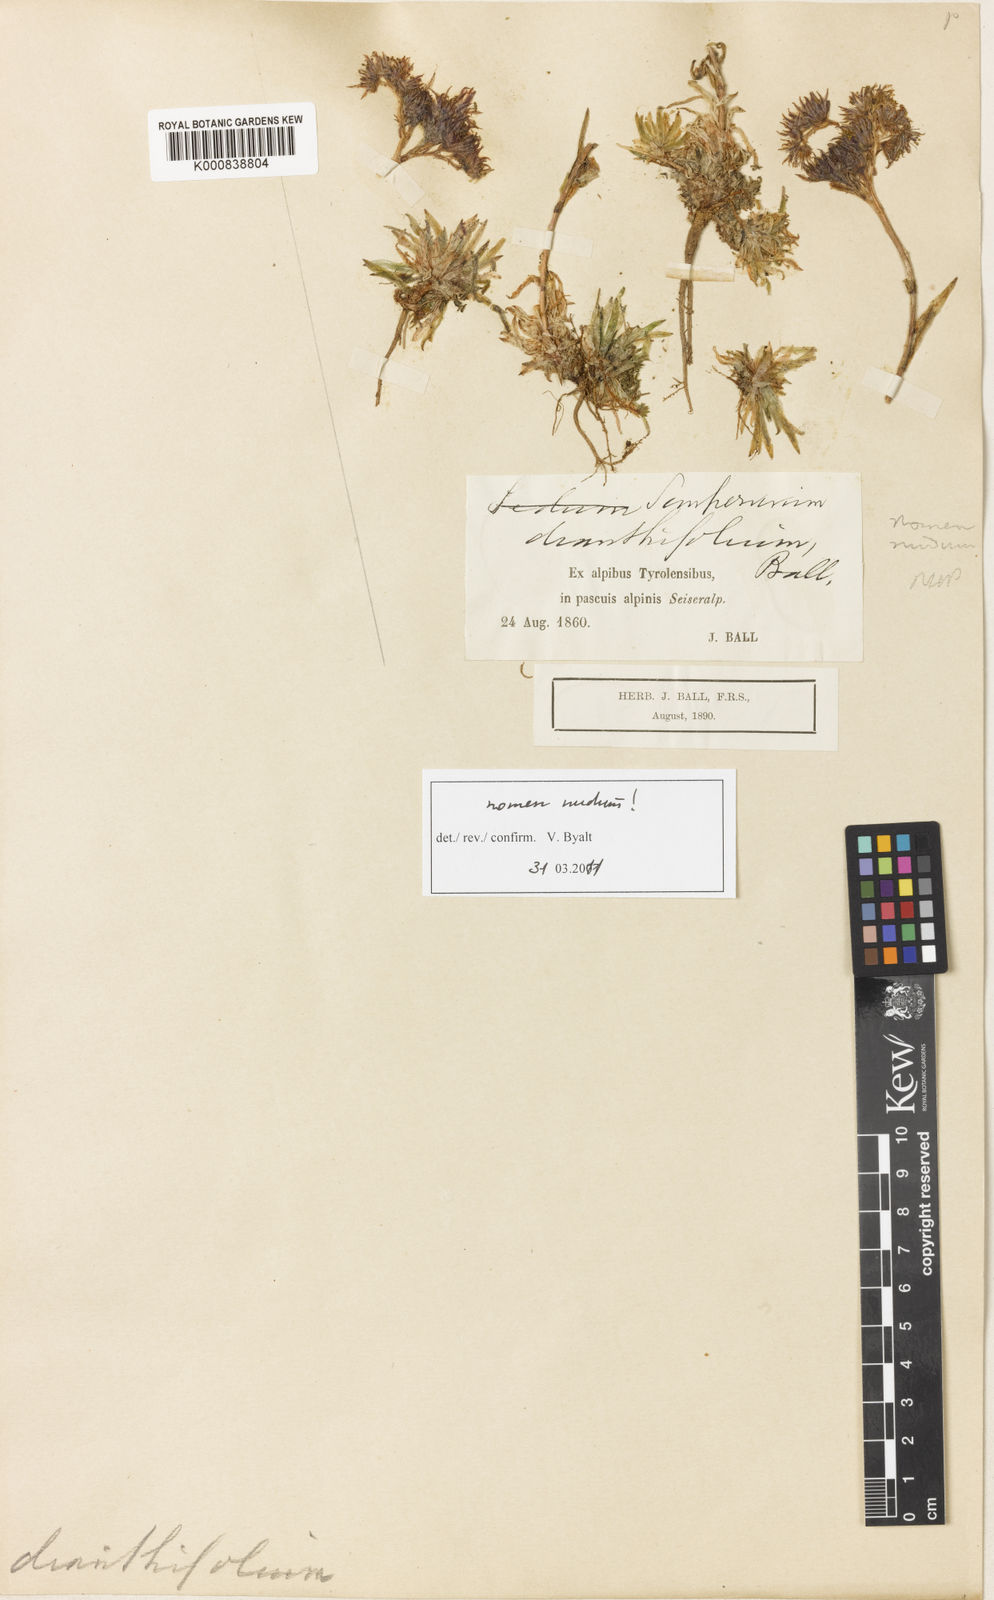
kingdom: Plantae
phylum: Tracheophyta
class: Magnoliopsida
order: Saxifragales
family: Crassulaceae
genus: Sempervivum
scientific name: Sempervivum
